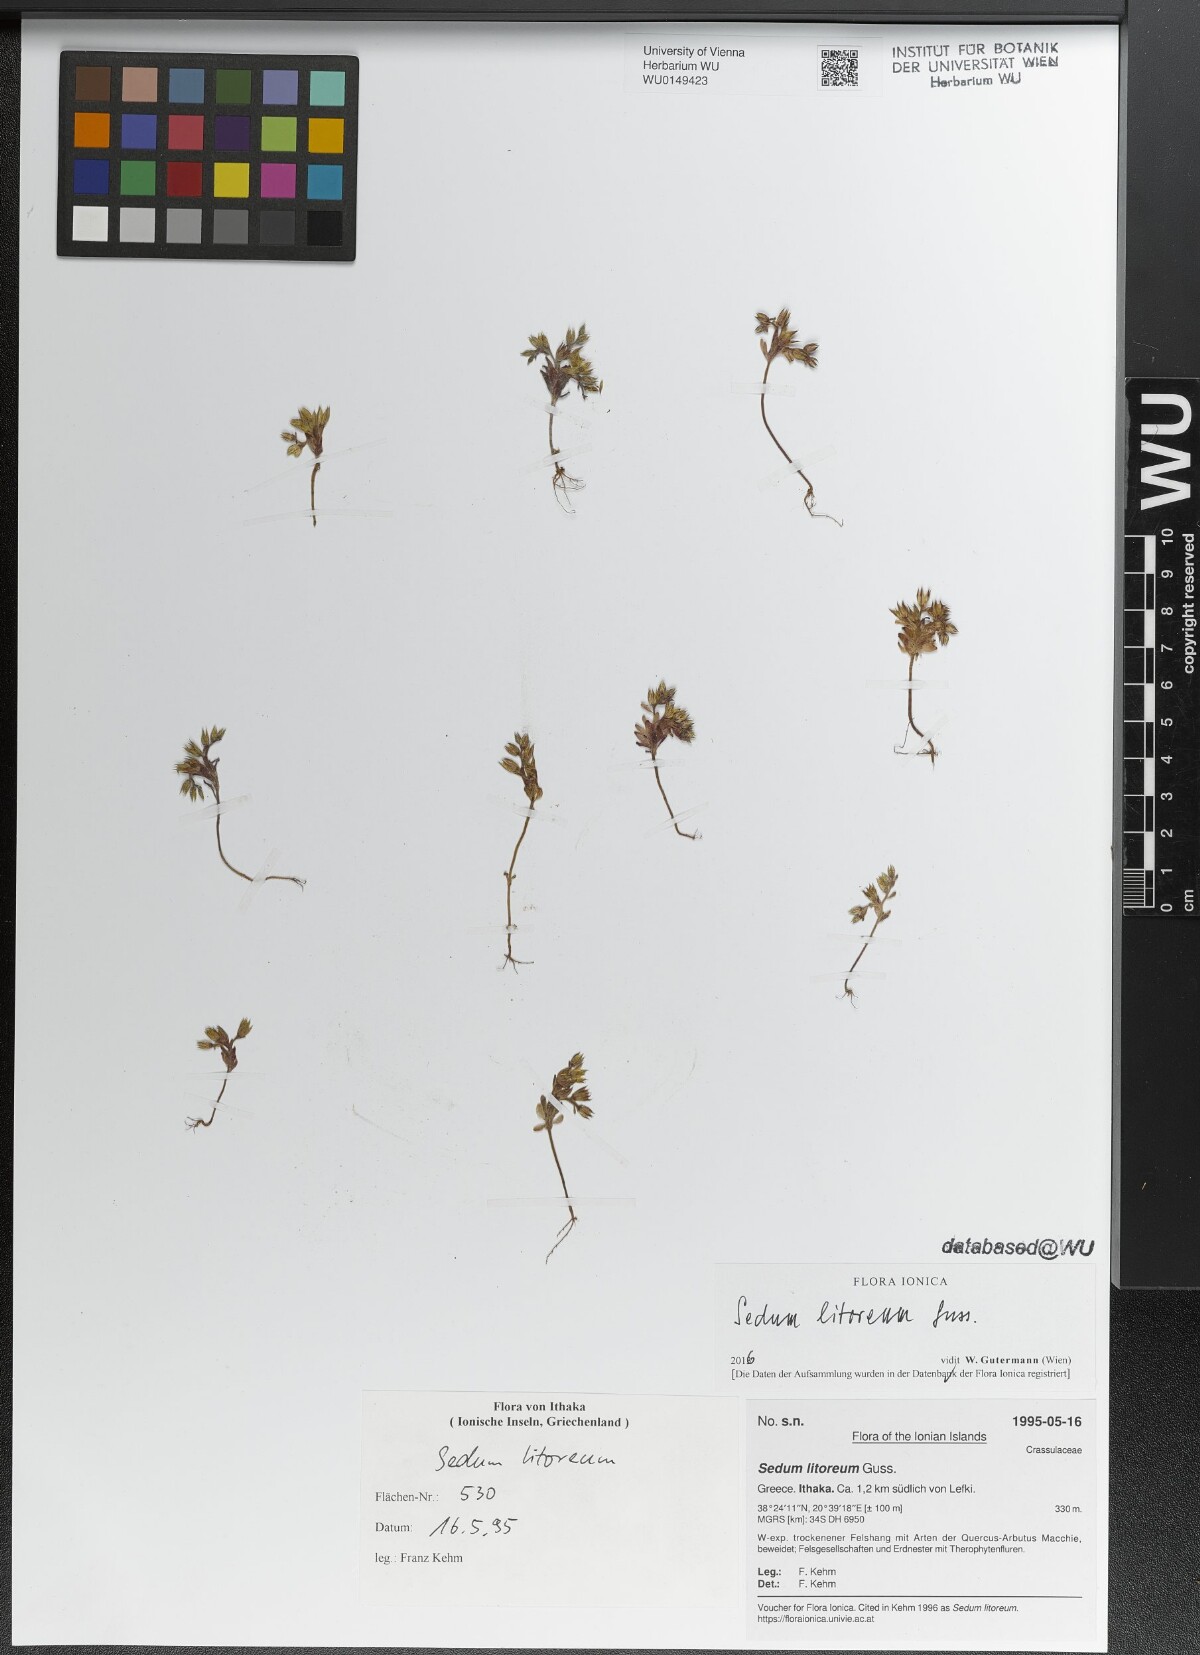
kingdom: Plantae
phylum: Tracheophyta
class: Magnoliopsida
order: Saxifragales
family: Crassulaceae
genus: Sedum
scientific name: Sedum litoreum
